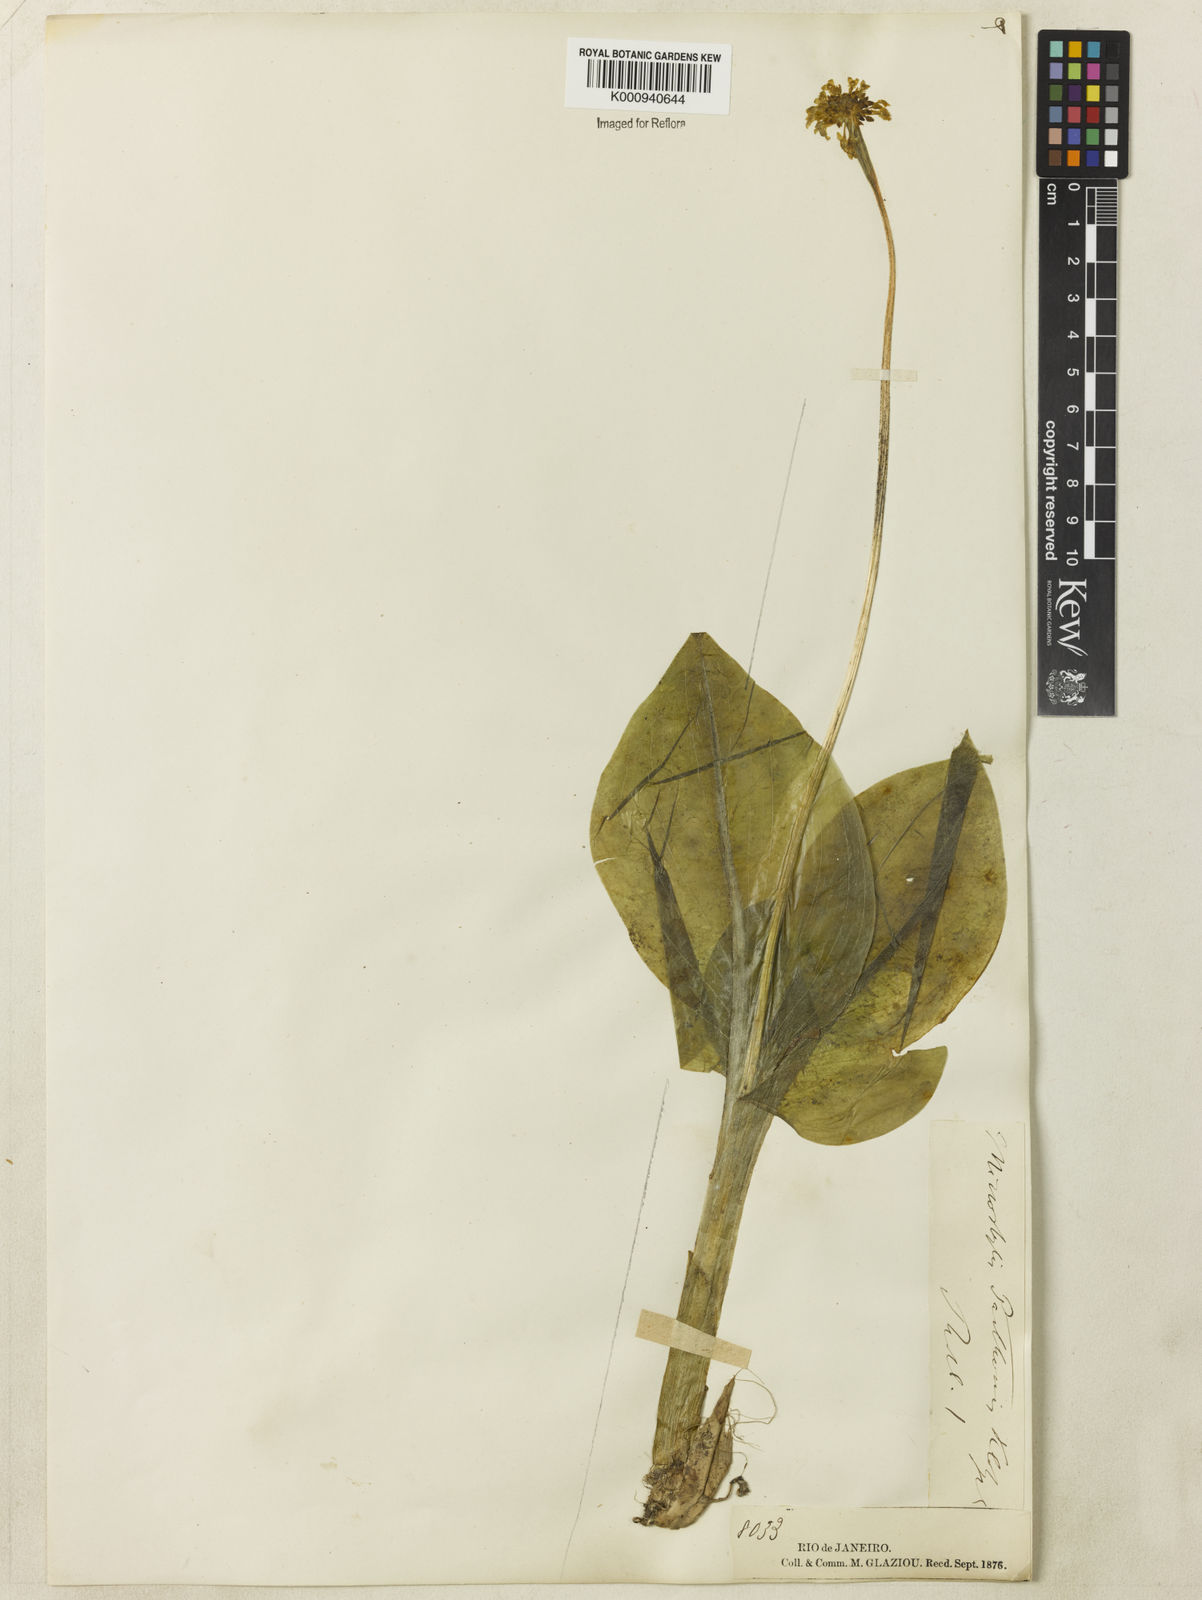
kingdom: Plantae
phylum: Tracheophyta
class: Liliopsida
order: Asparagales
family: Orchidaceae
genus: Malaxis
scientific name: Malaxis parthoni
